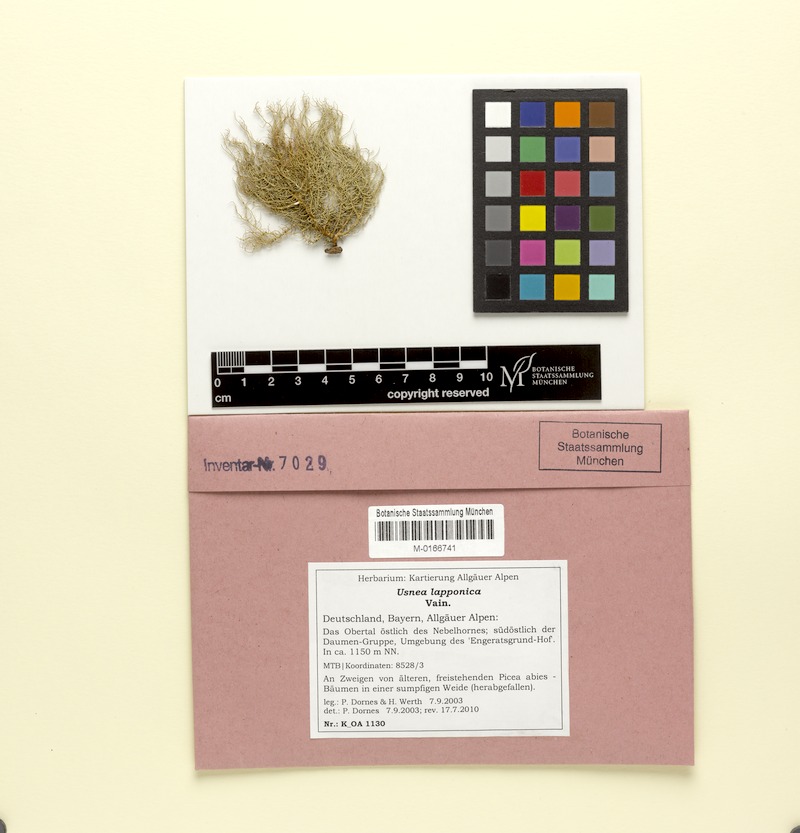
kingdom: Fungi
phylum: Ascomycota
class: Lecanoromycetes
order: Lecanorales
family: Parmeliaceae
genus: Usnea
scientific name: Usnea lapponica
